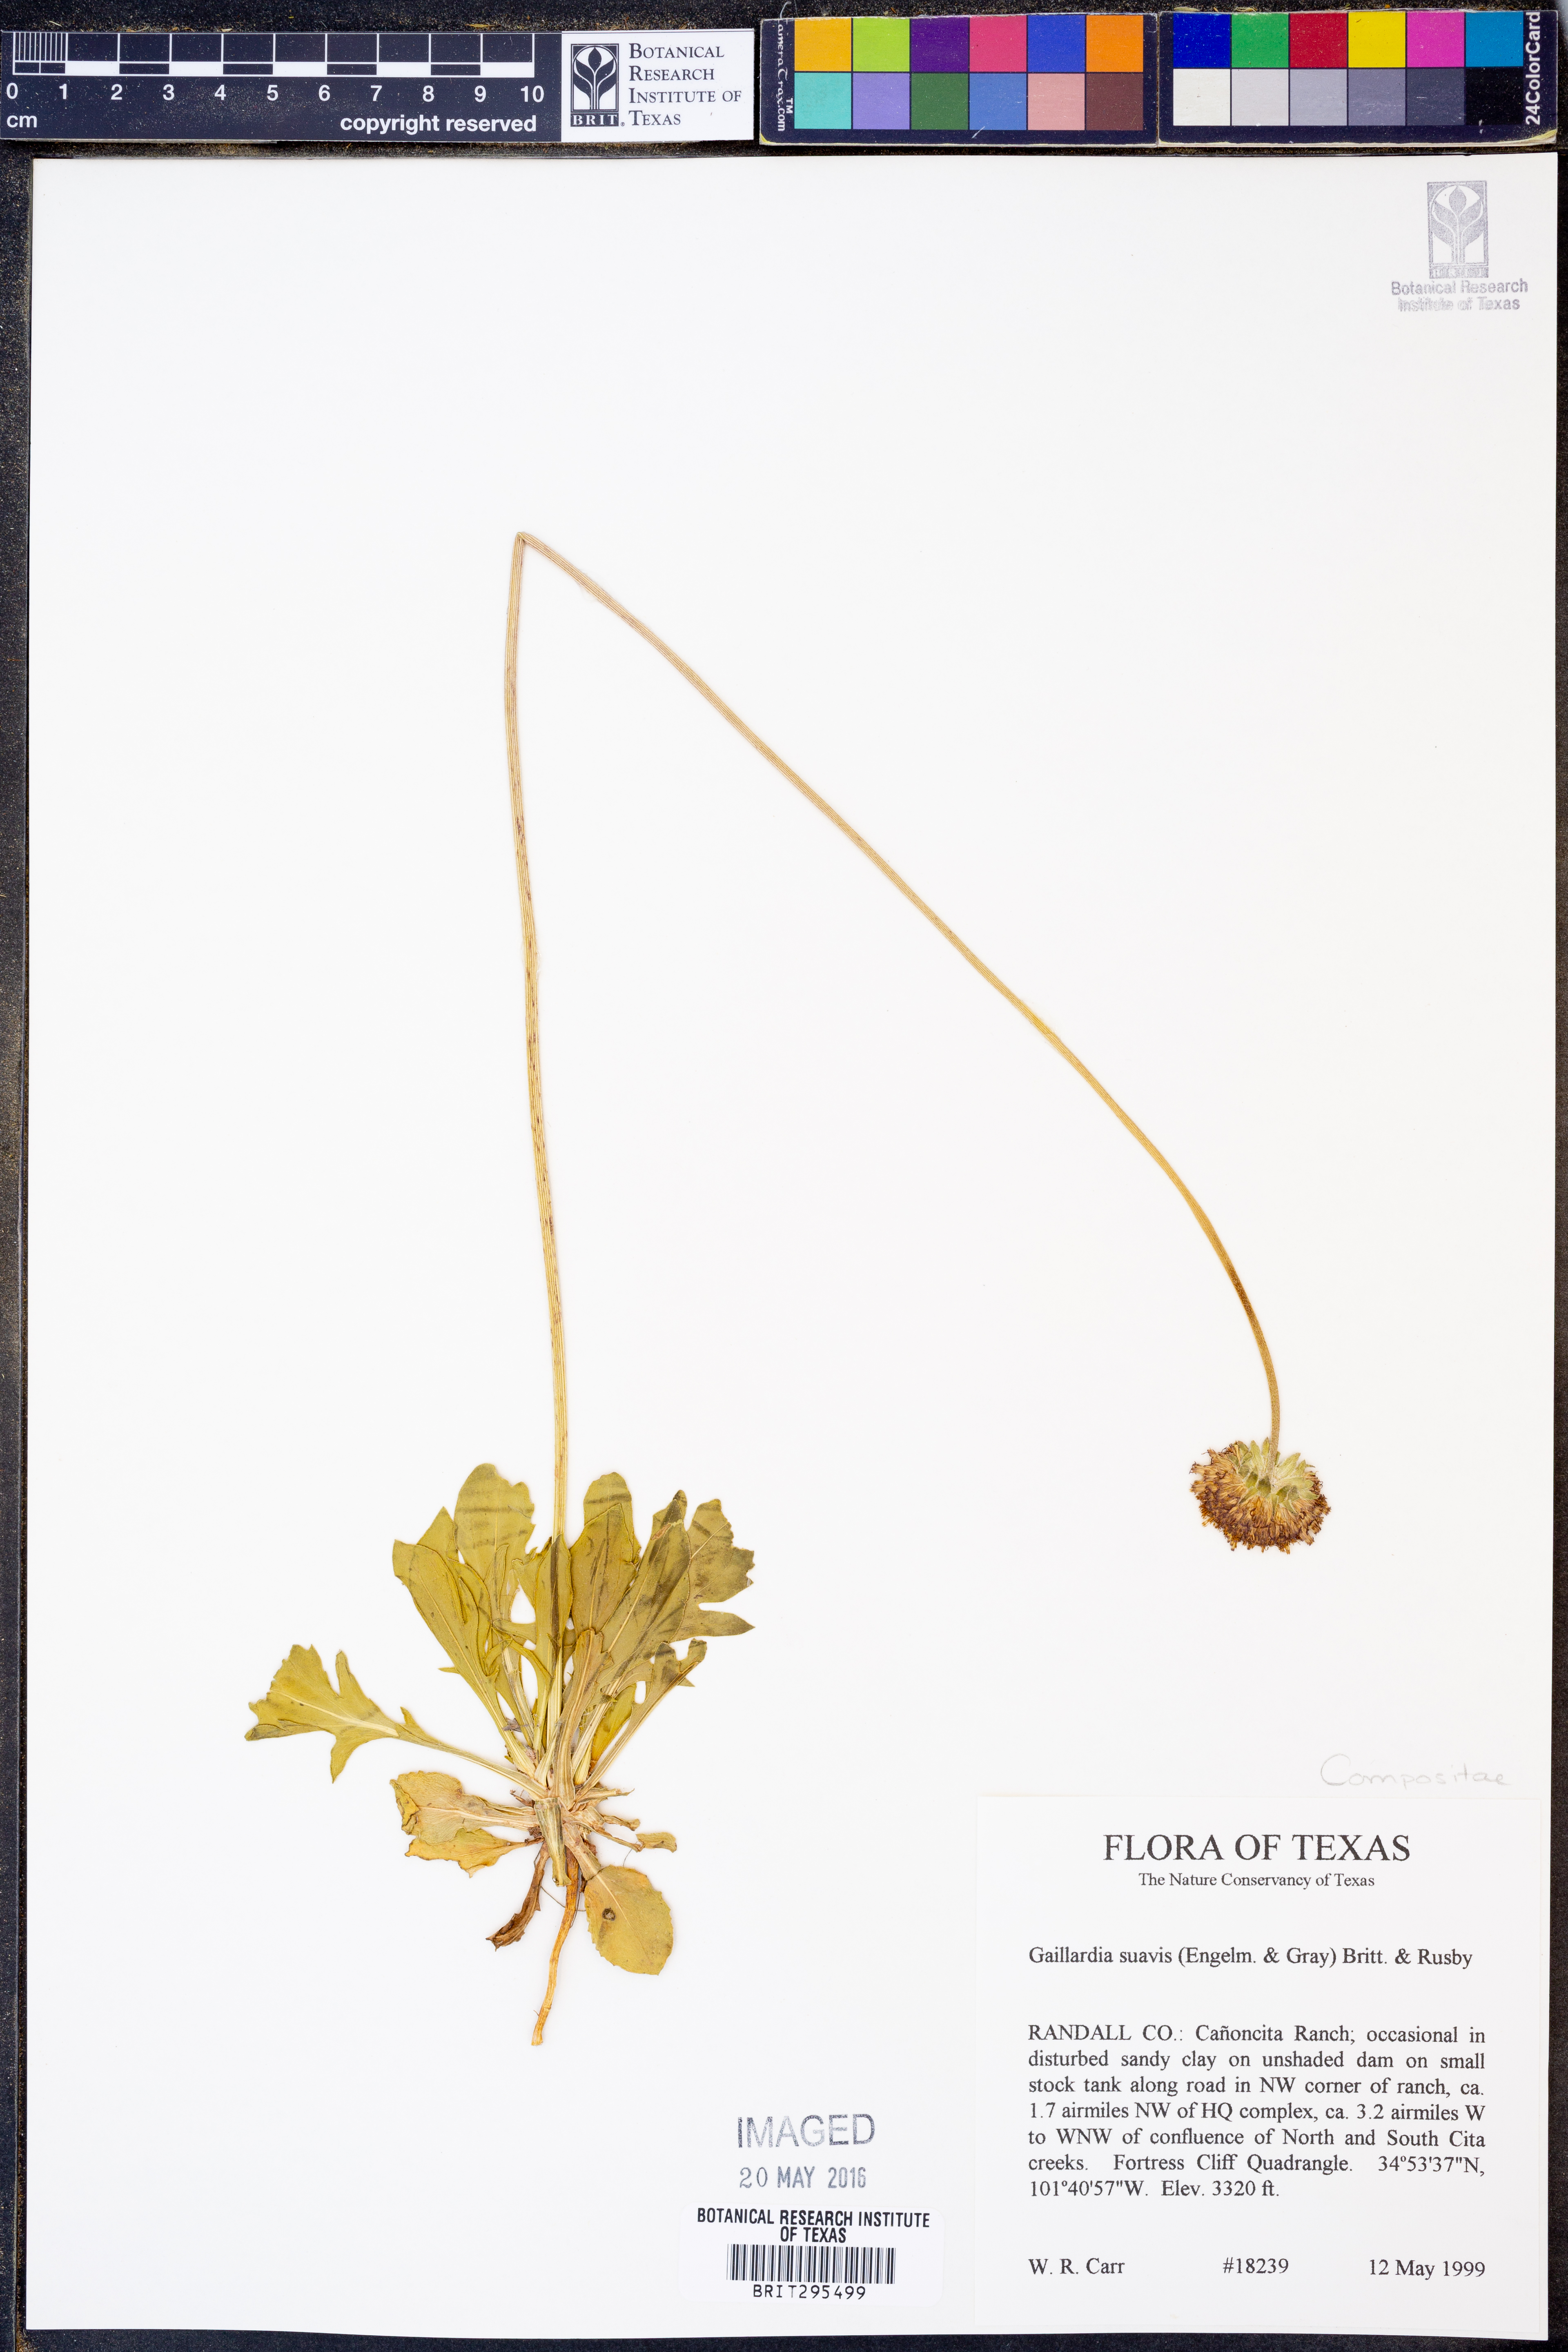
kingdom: Plantae
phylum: Tracheophyta
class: Magnoliopsida
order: Asterales
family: Asteraceae
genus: Gaillardia
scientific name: Gaillardia suavis
